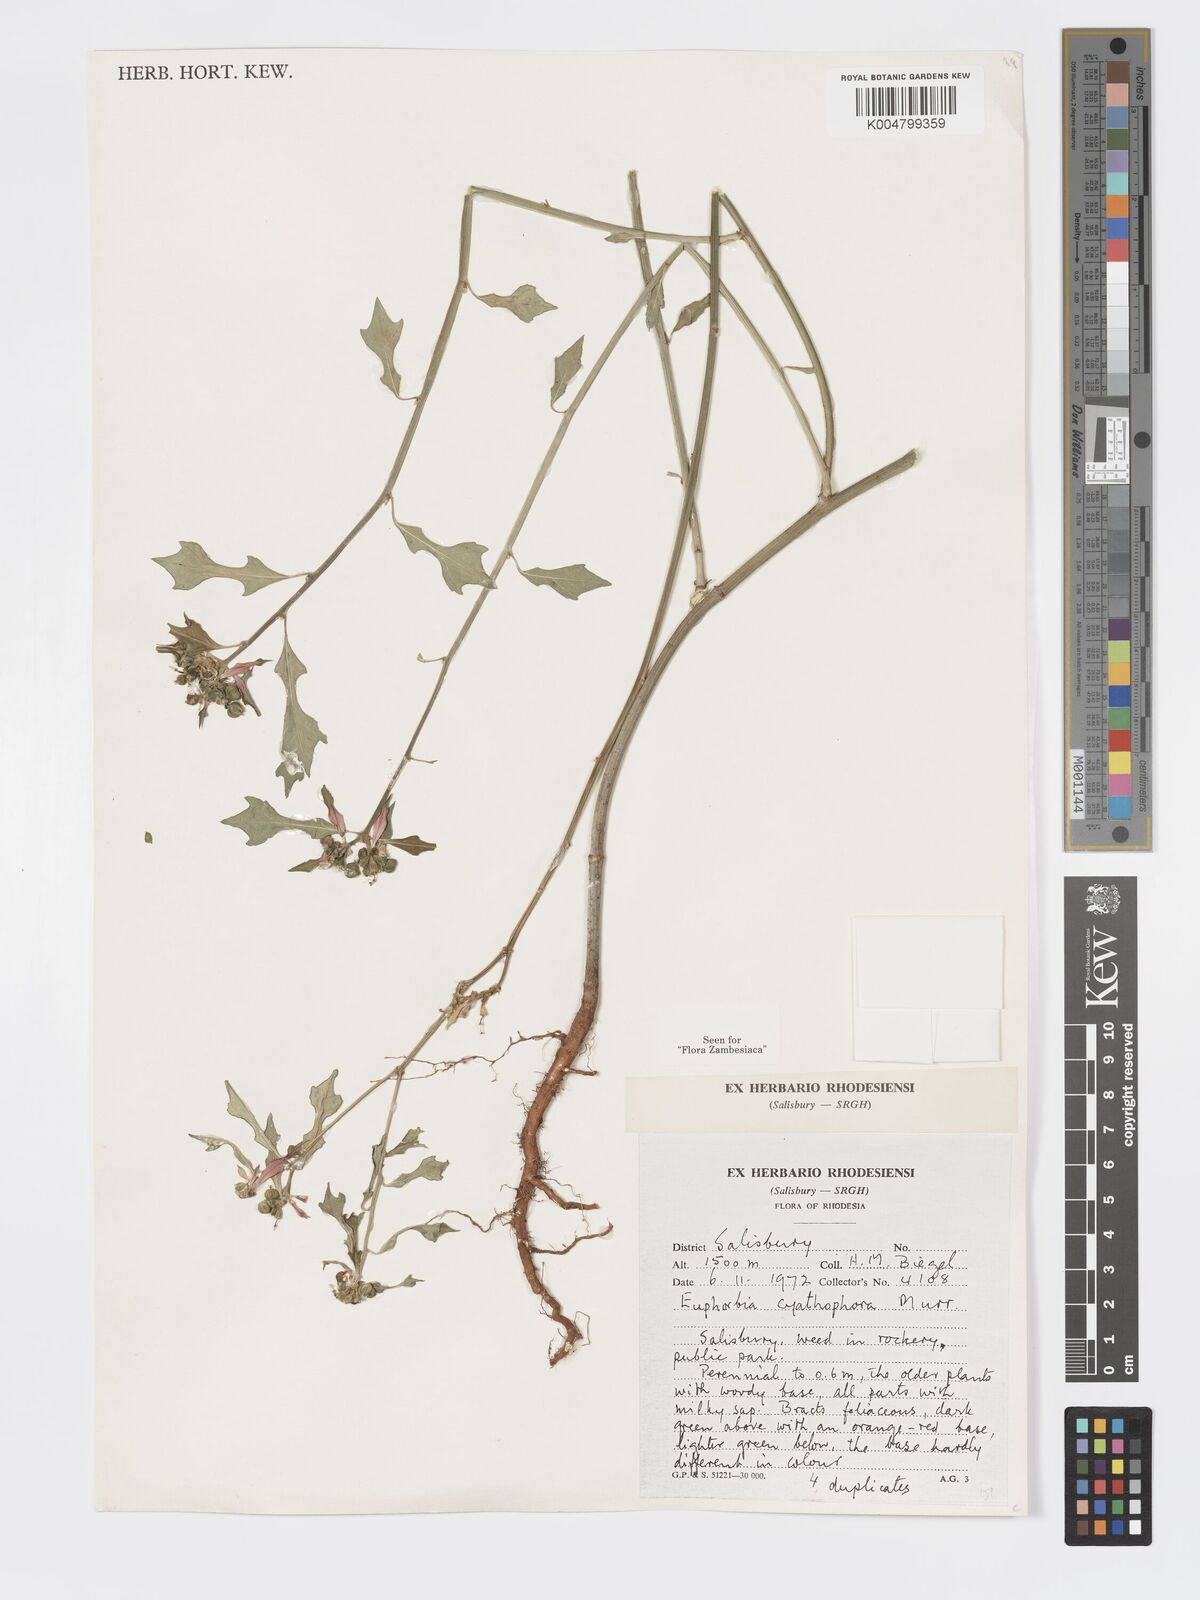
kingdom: Plantae
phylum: Tracheophyta
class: Magnoliopsida
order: Malpighiales
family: Euphorbiaceae
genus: Euphorbia
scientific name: Euphorbia heterophylla
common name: Mexican fireplant
